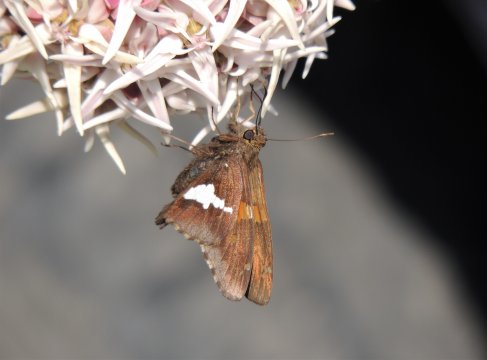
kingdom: Animalia
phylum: Arthropoda
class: Insecta
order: Lepidoptera
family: Hesperiidae
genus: Epargyreus
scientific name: Epargyreus clarus
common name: Silver-spotted Skipper
